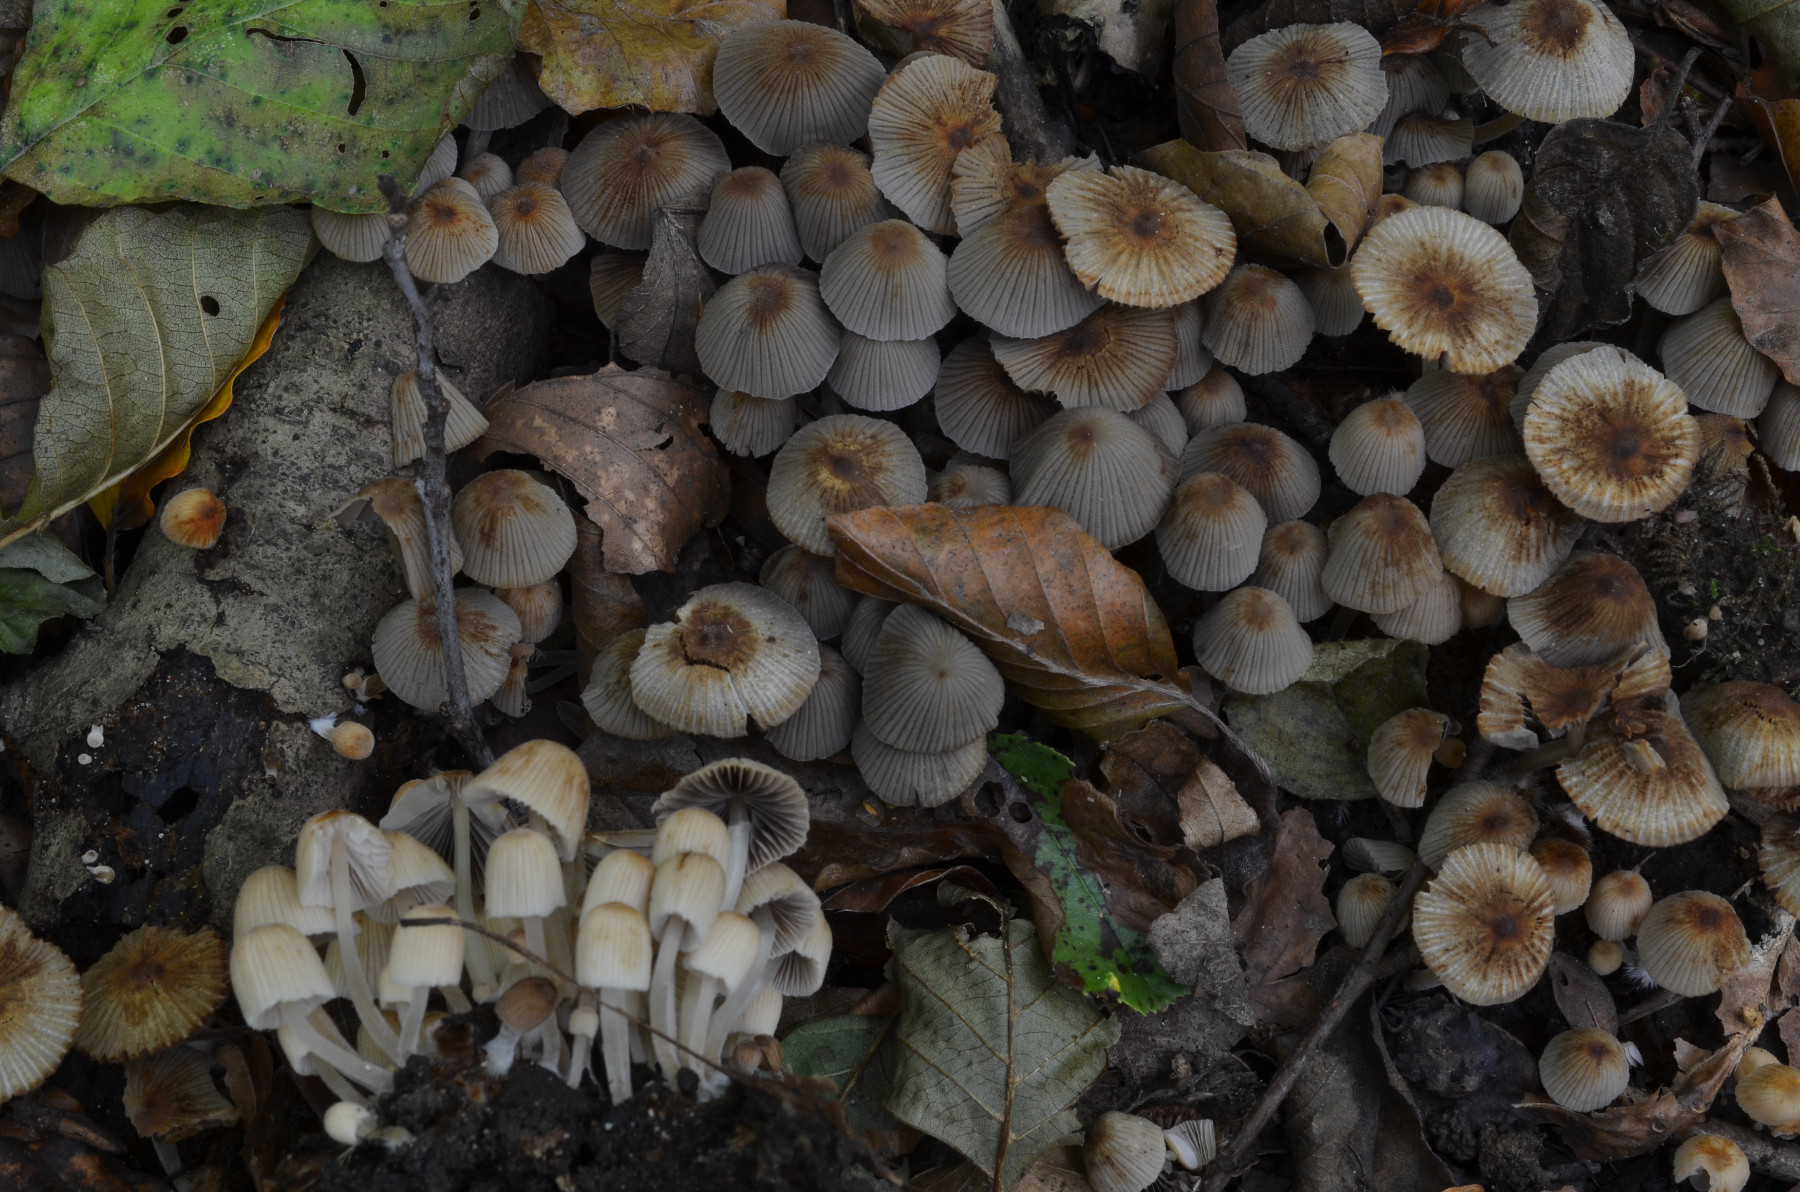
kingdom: Fungi
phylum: Basidiomycota
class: Agaricomycetes
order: Agaricales
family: Psathyrellaceae
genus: Coprinellus
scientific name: Coprinellus disseminatus
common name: bredsået blækhat
